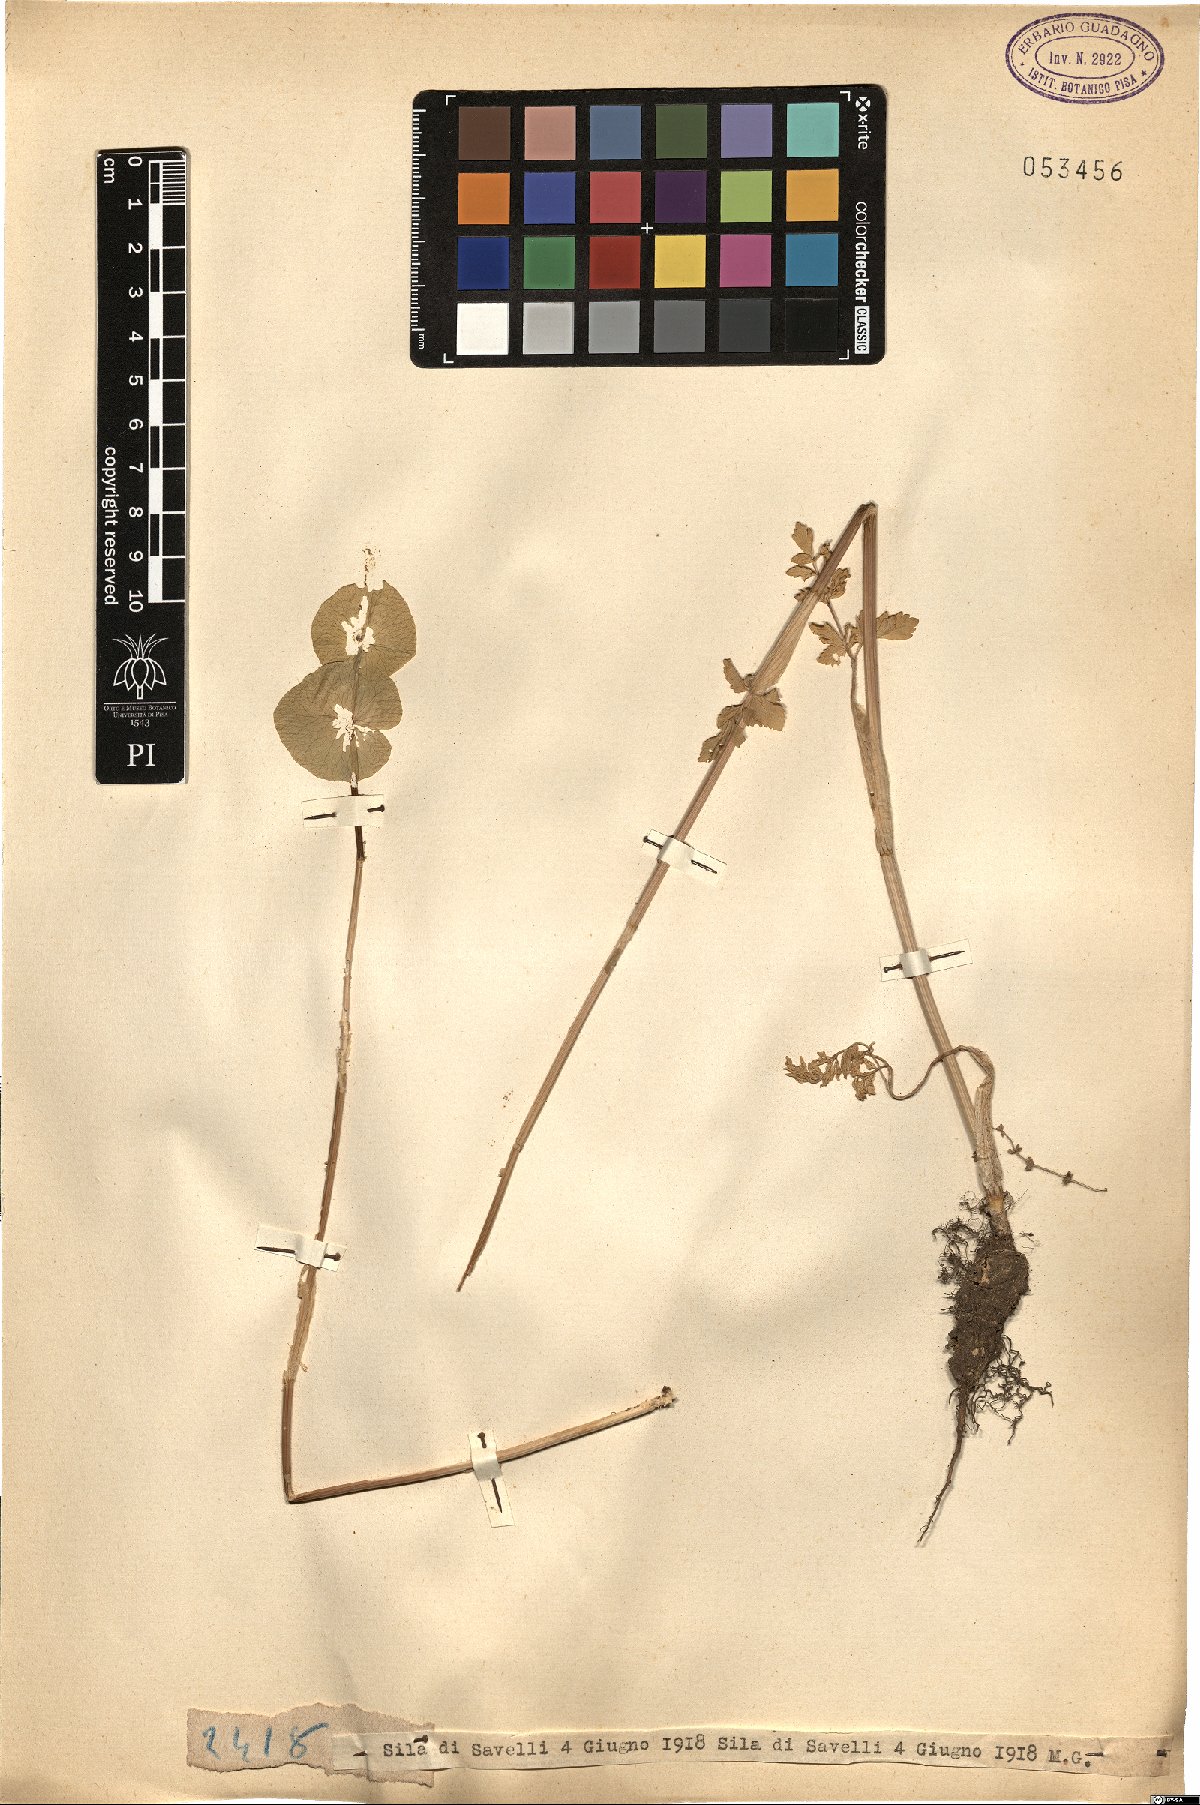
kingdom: Plantae
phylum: Tracheophyta
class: Magnoliopsida
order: Apiales
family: Apiaceae
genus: Smyrnium
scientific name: Smyrnium
